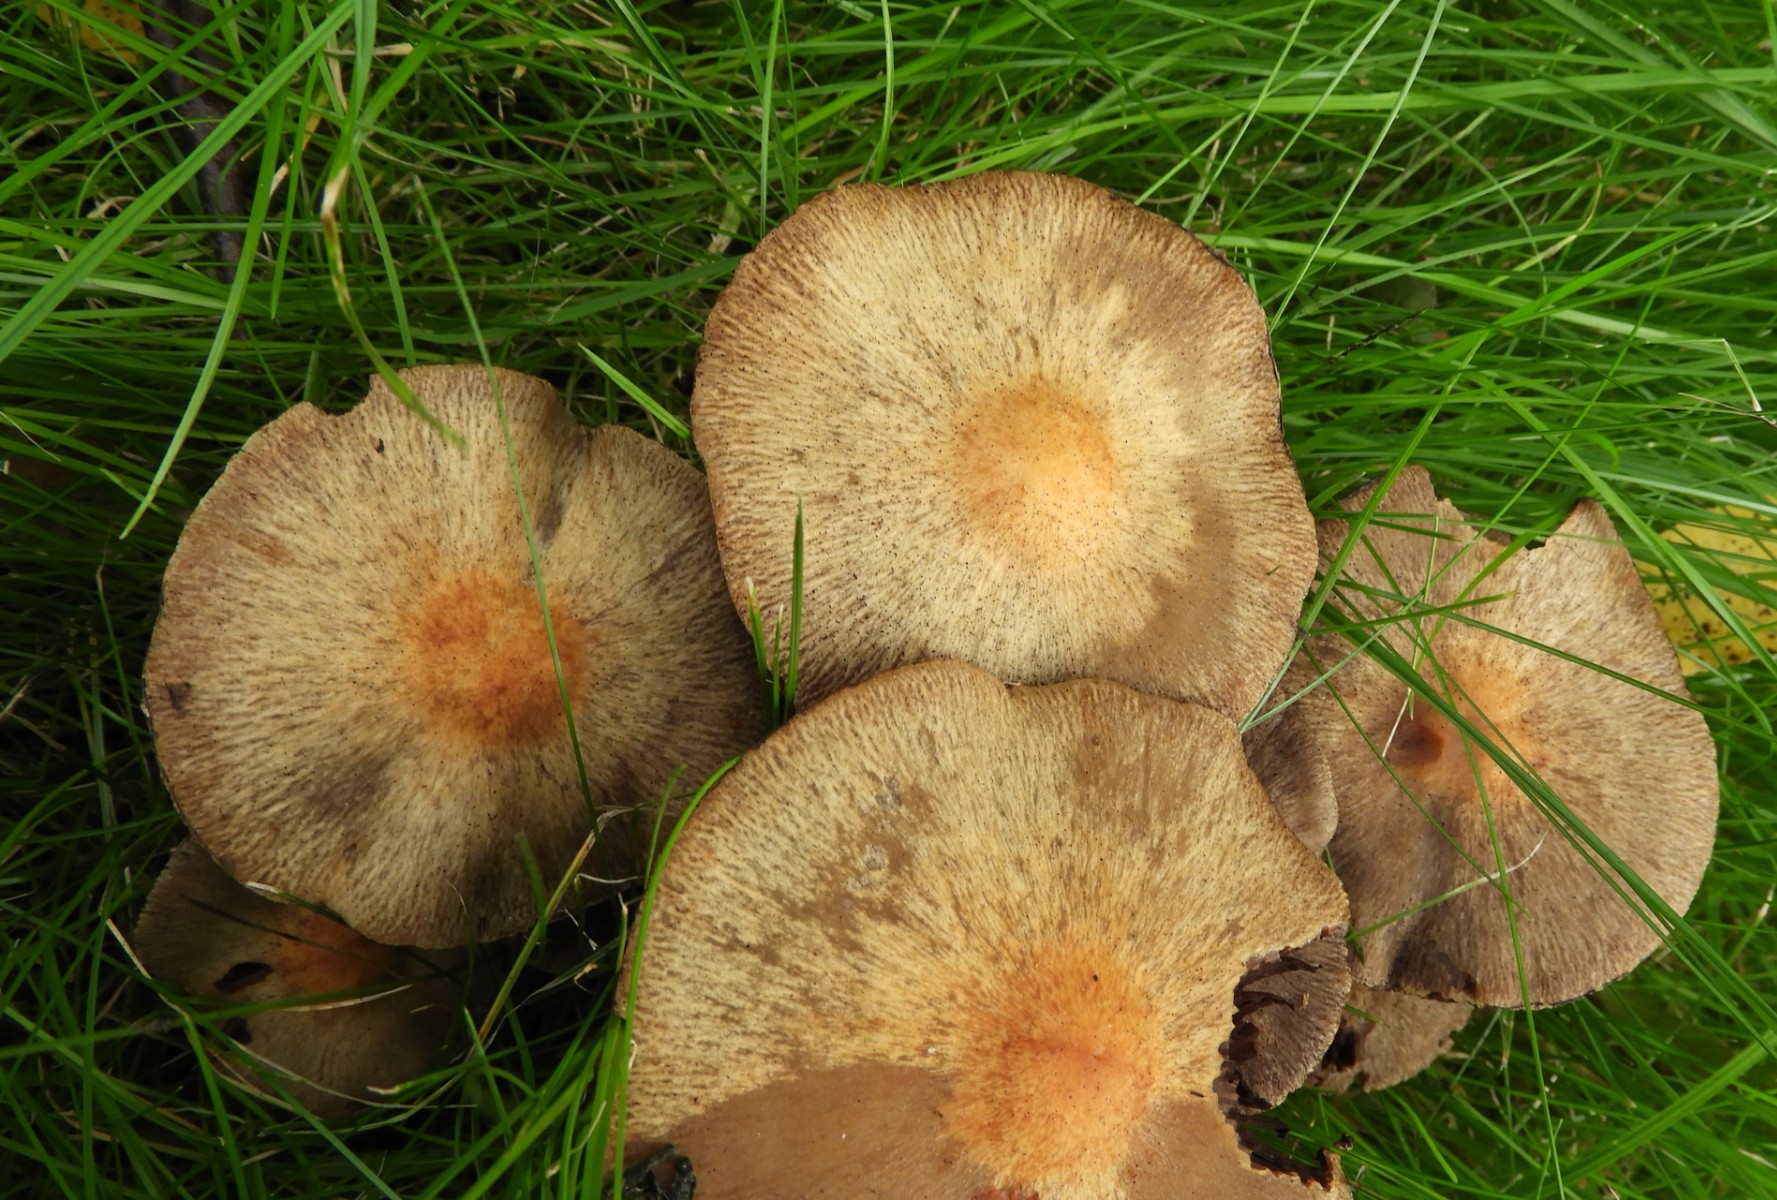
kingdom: Fungi
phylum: Basidiomycota
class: Agaricomycetes
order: Agaricales
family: Psathyrellaceae
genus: Lacrymaria
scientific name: Lacrymaria lacrymabunda
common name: grædende mørkhat
